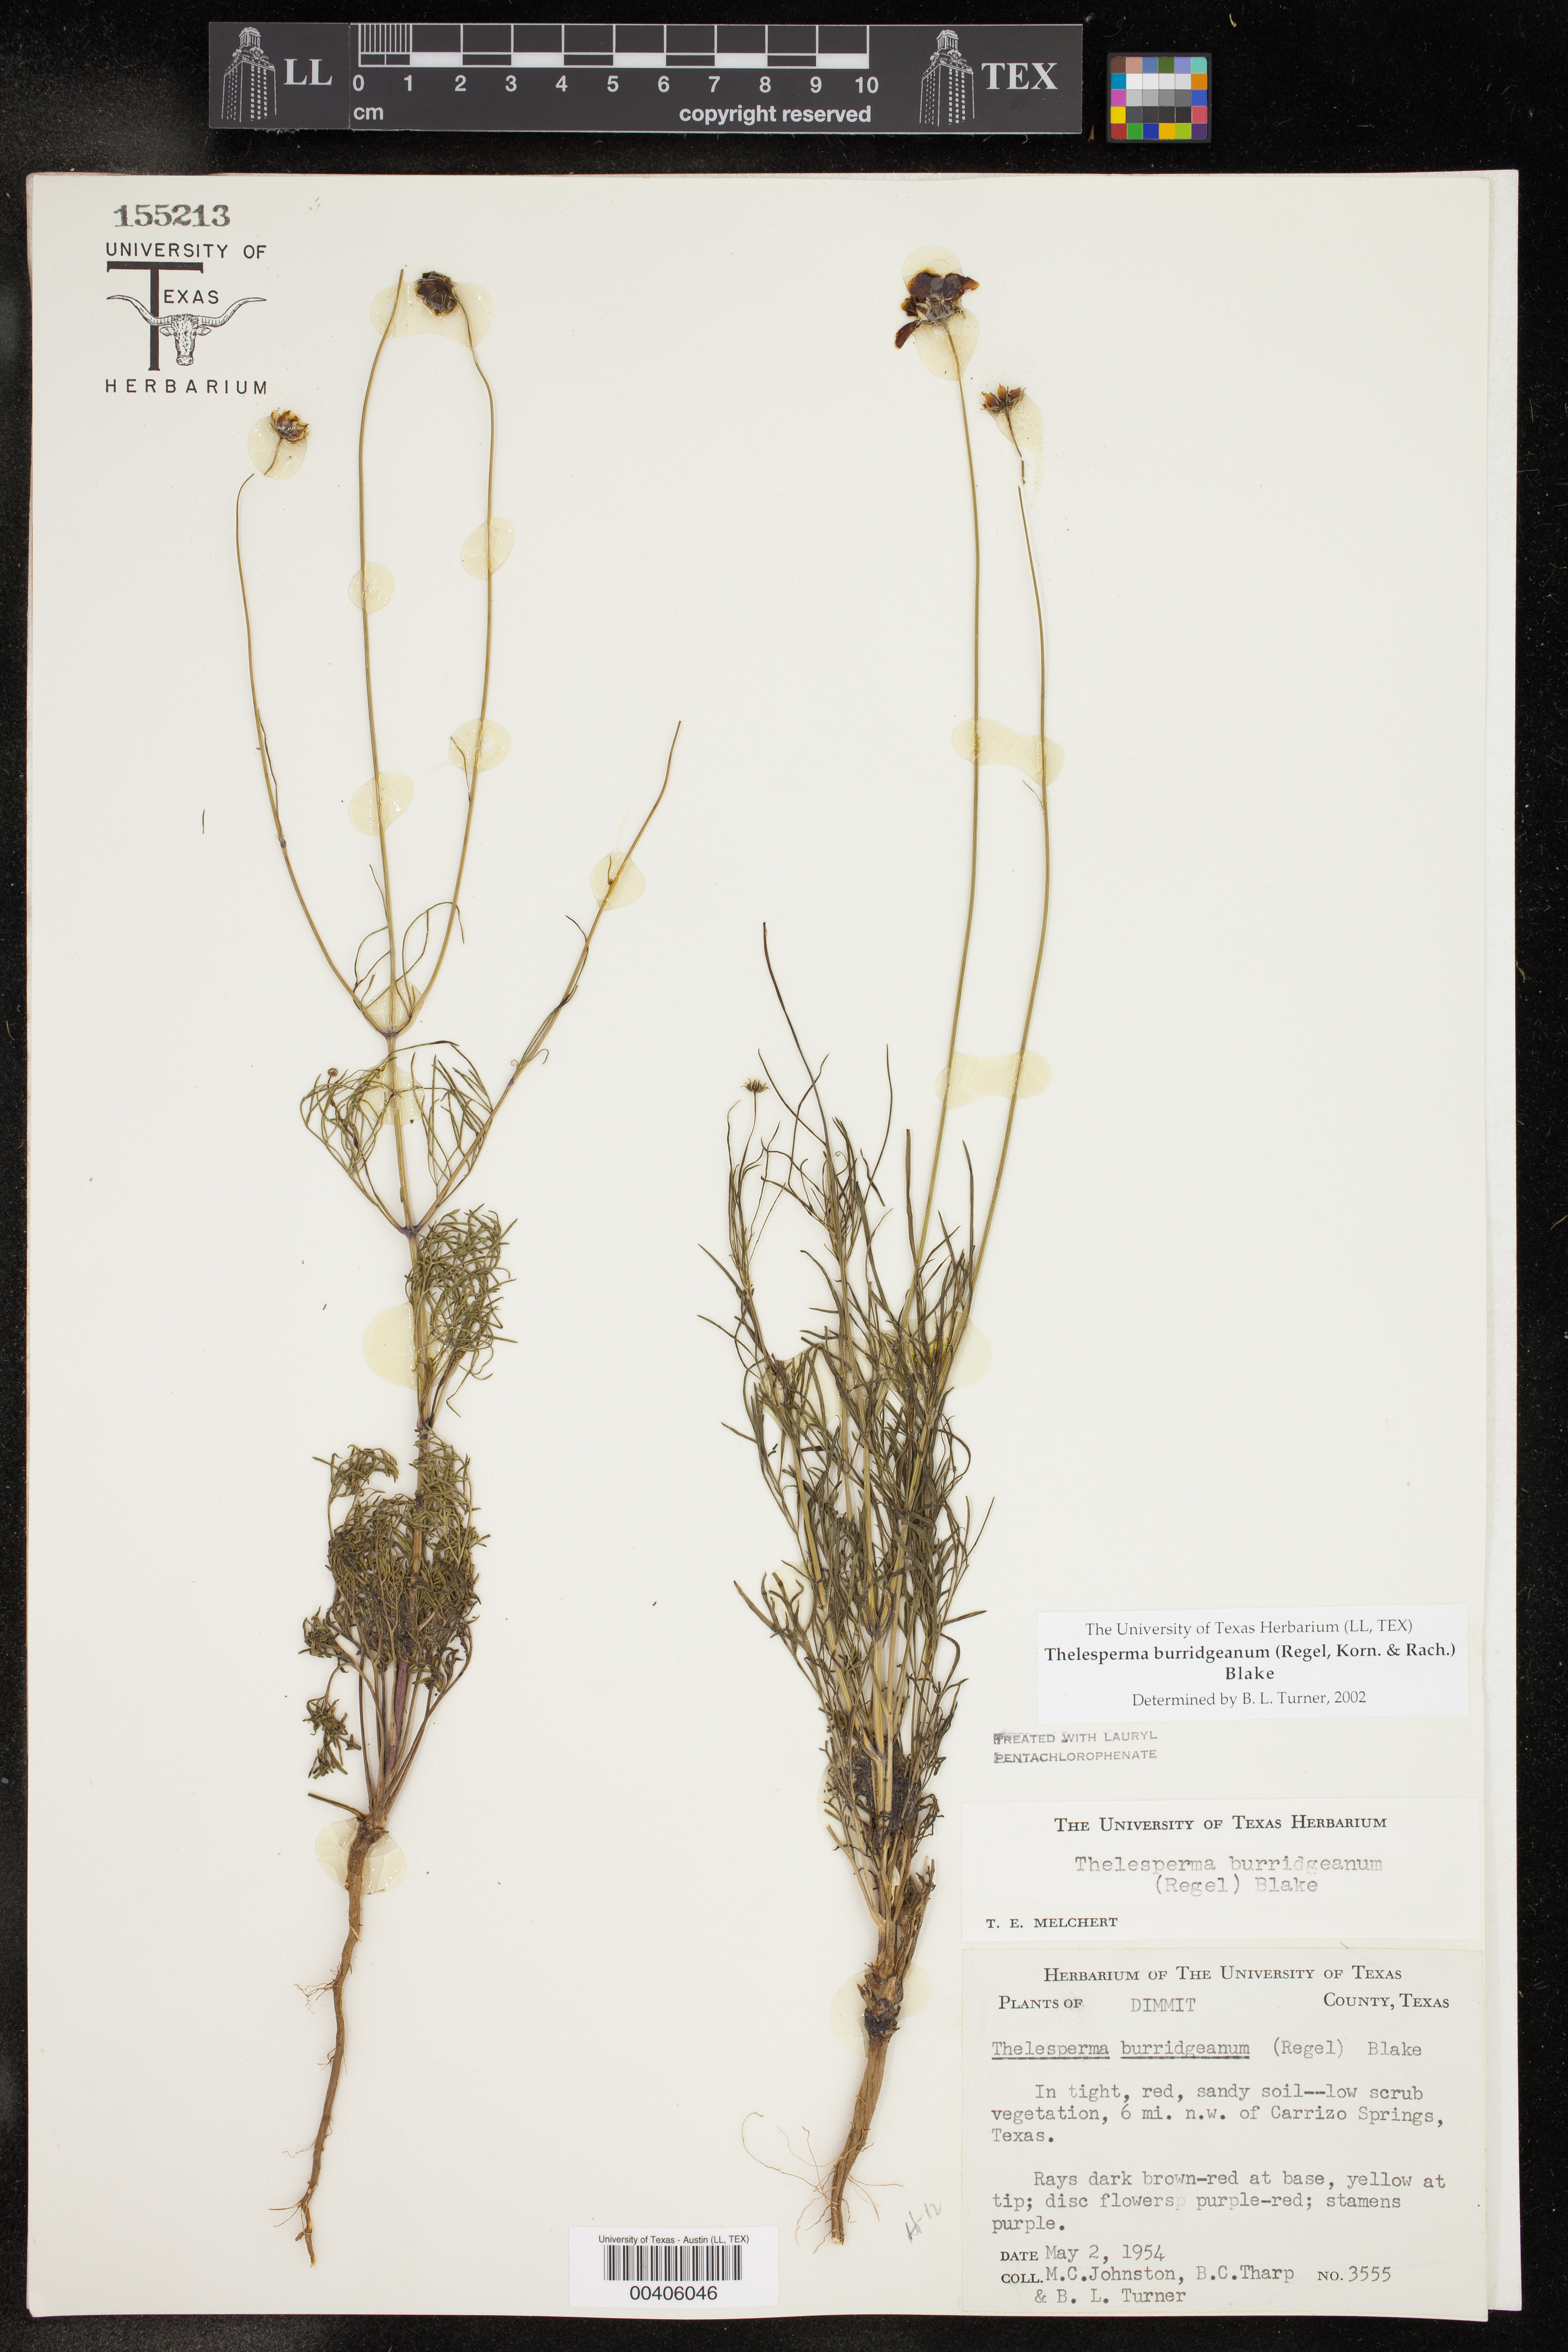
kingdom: Plantae
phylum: Tracheophyta
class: Magnoliopsida
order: Asterales
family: Asteraceae
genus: Thelesperma
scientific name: Thelesperma burridgeanum
